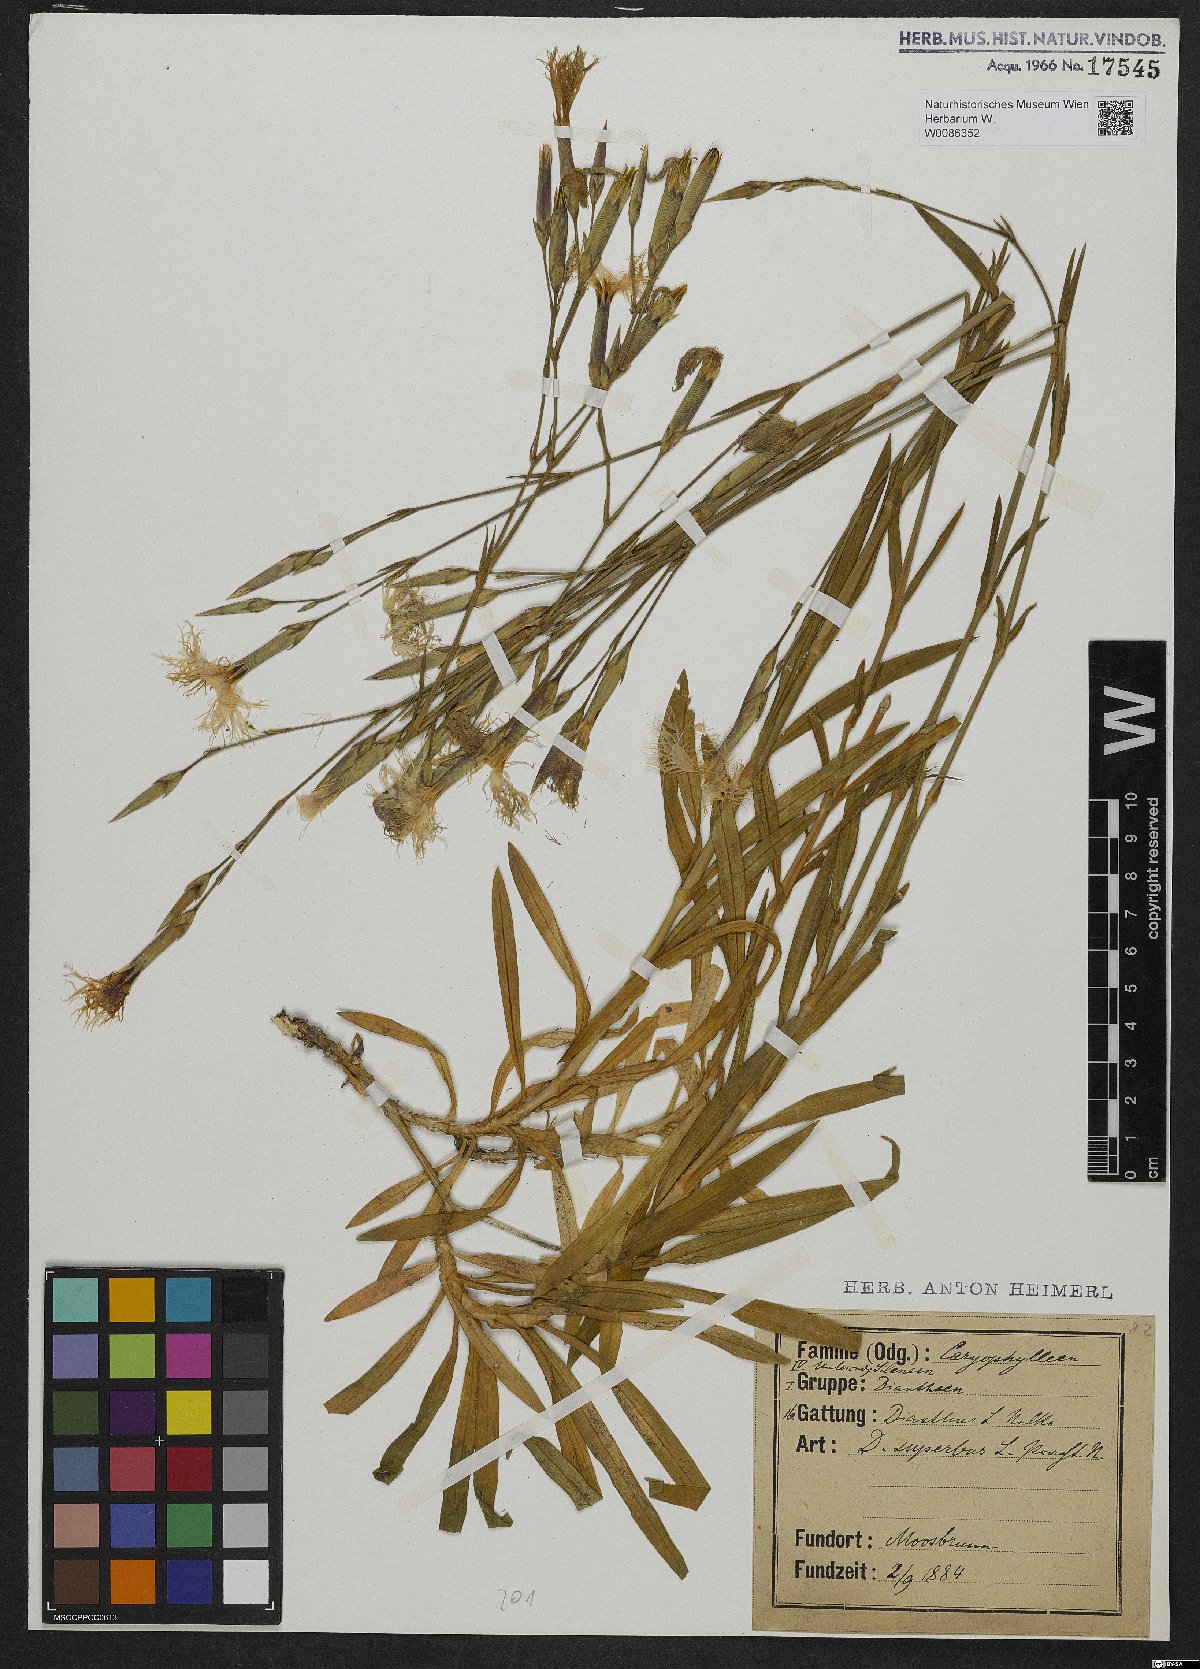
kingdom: Plantae
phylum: Tracheophyta
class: Magnoliopsida
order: Caryophyllales
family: Caryophyllaceae
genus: Dianthus
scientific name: Dianthus superbus
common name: Fringed pink
